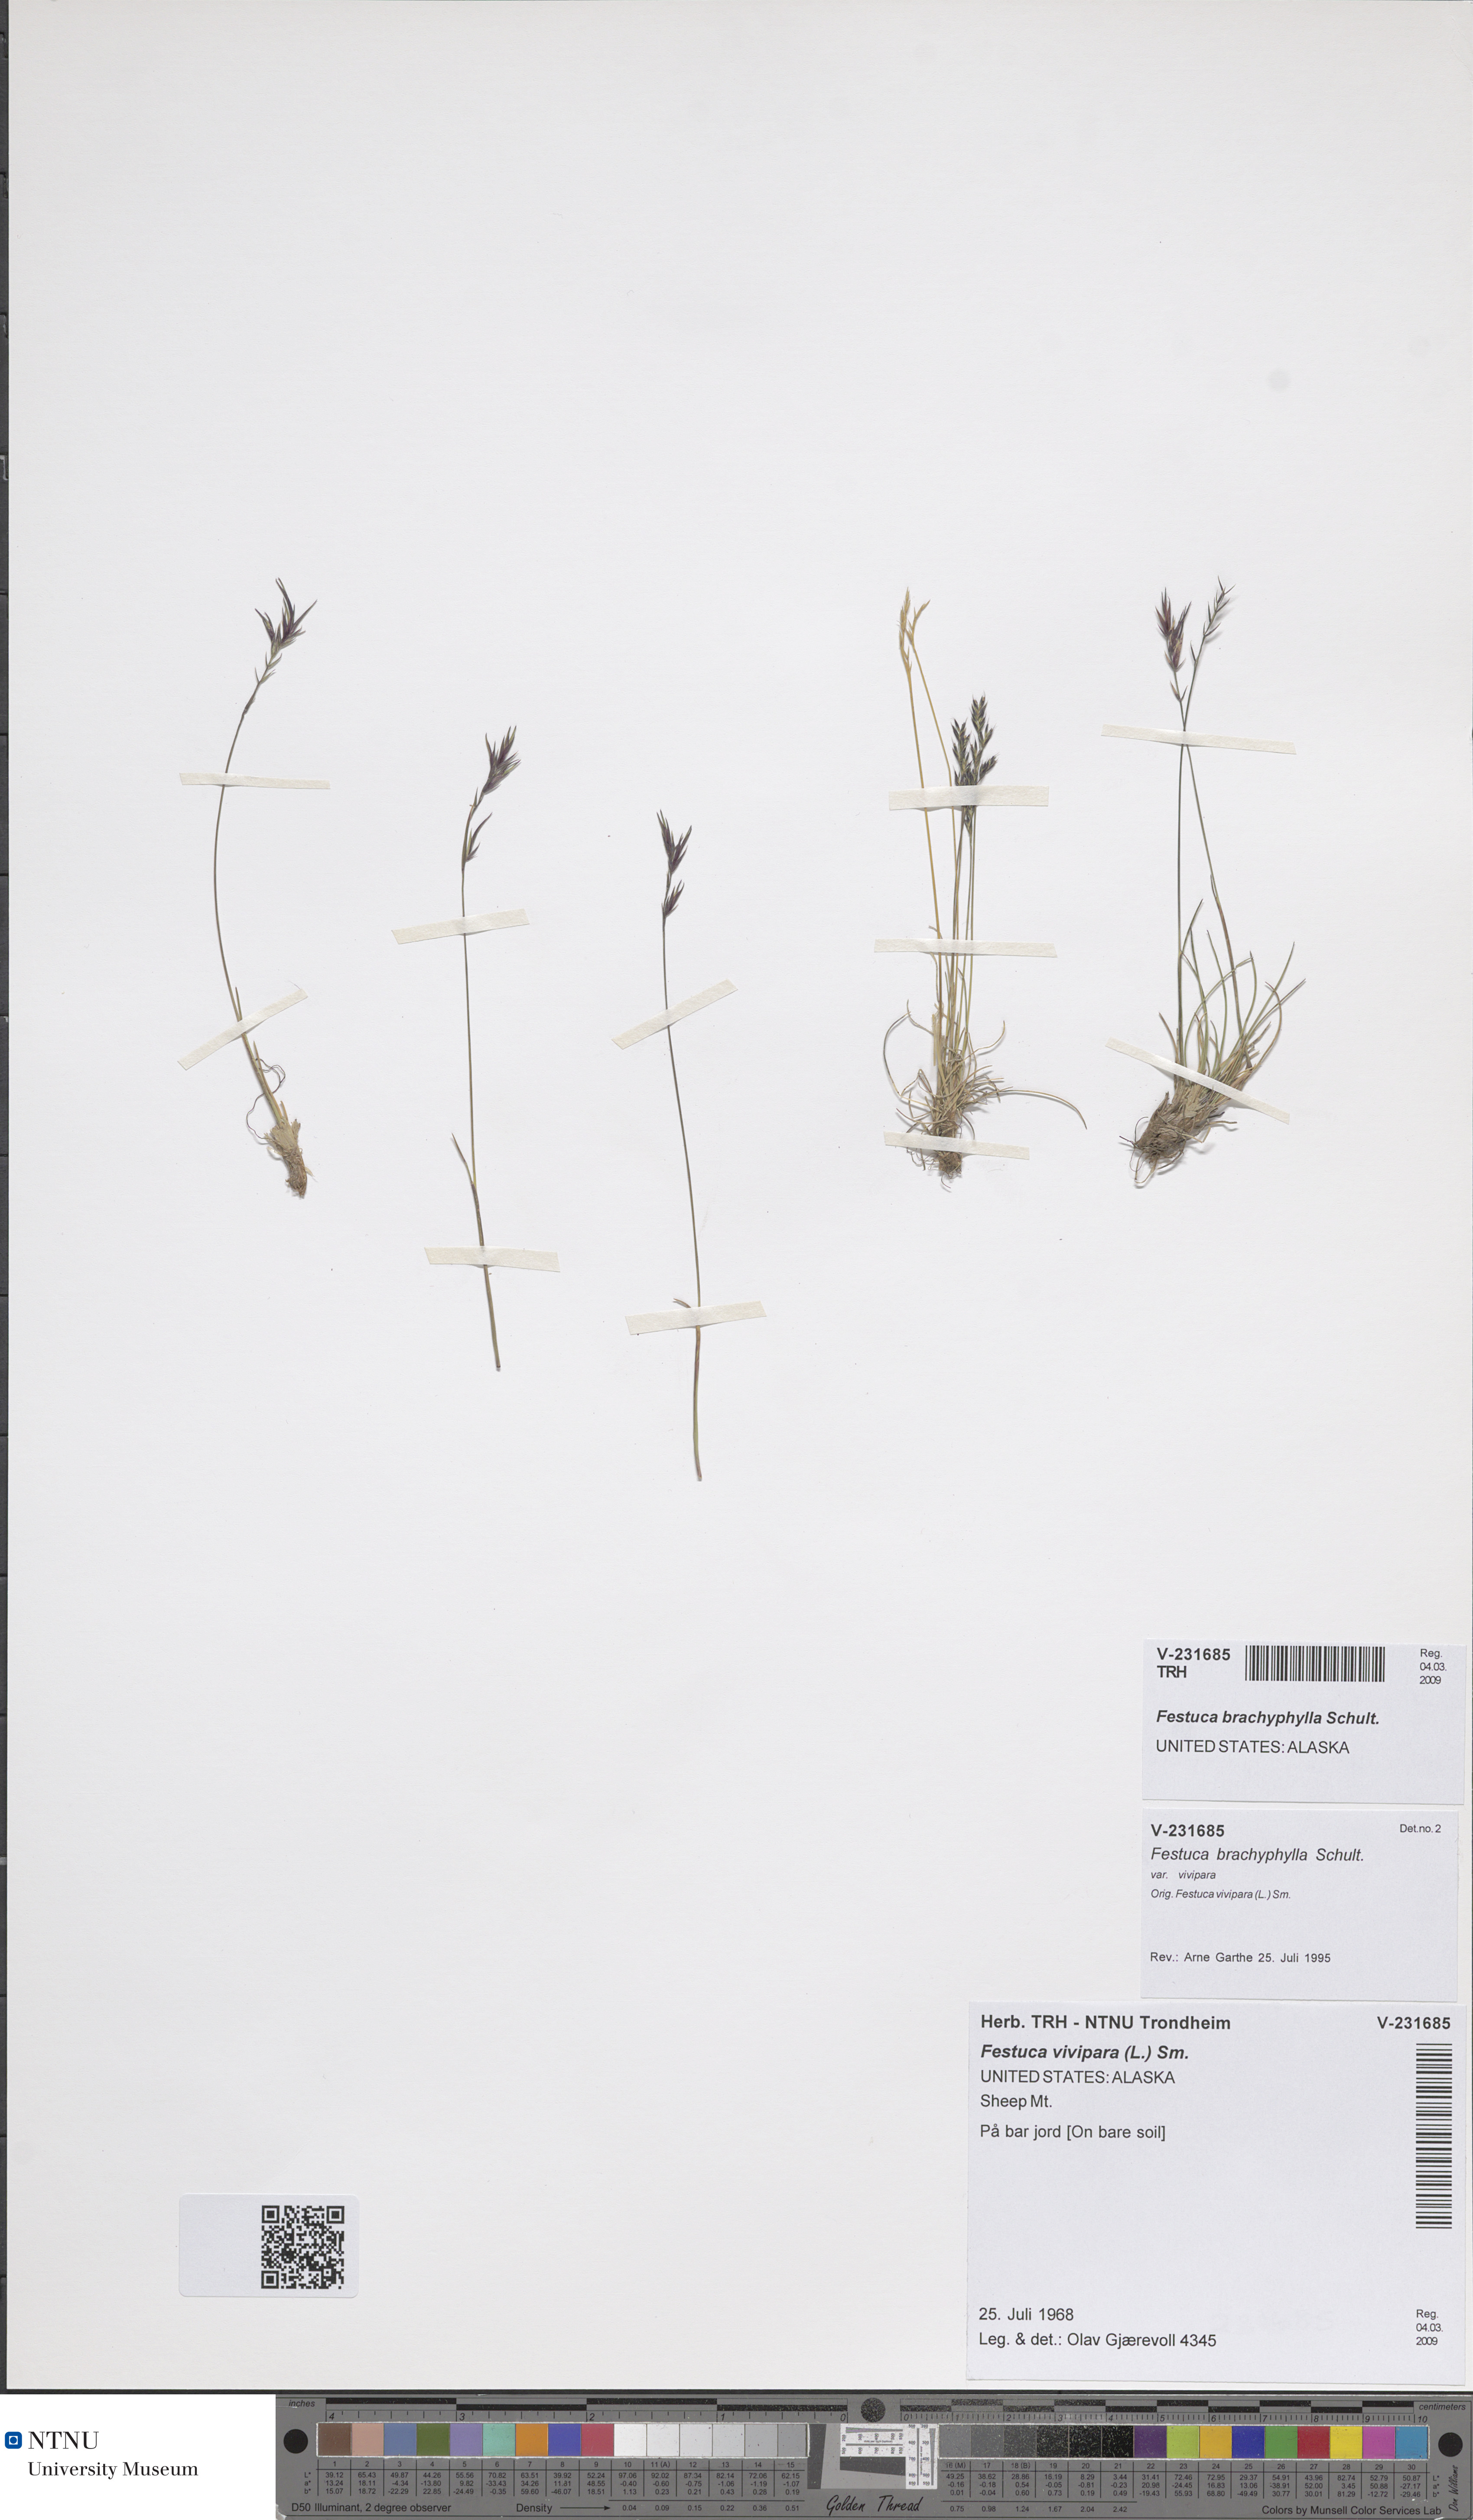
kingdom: Plantae
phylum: Tracheophyta
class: Liliopsida
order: Poales
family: Poaceae
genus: Festuca
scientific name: Festuca brachyphylla
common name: Alpine fescue
